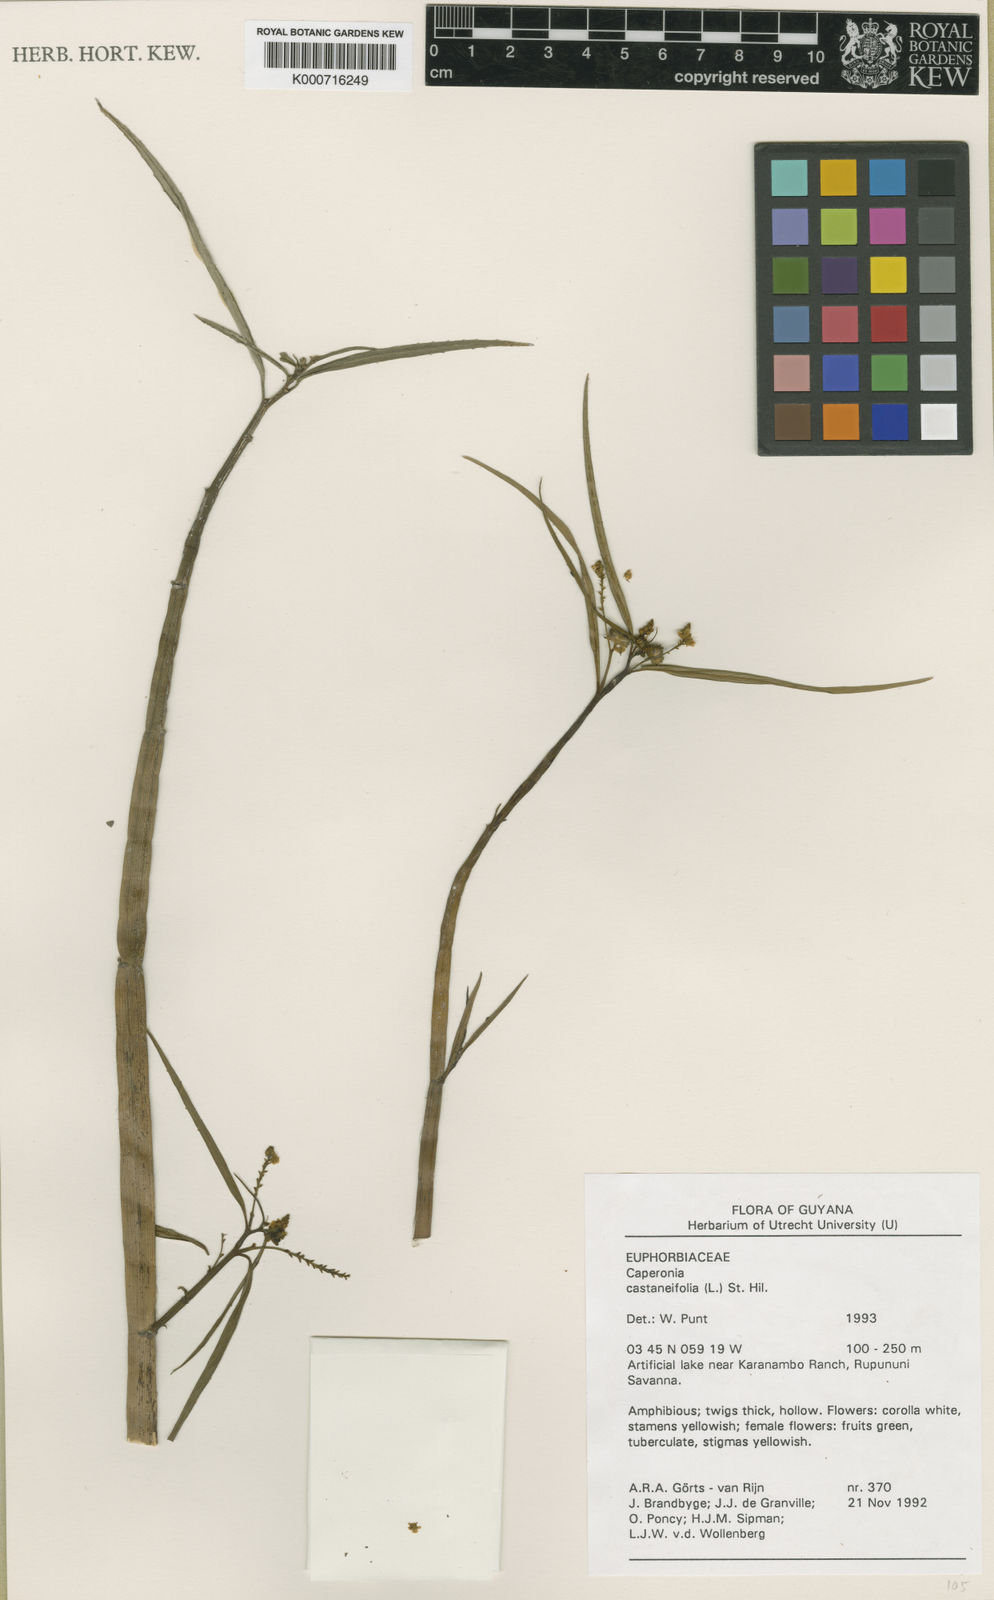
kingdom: Plantae
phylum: Tracheophyta
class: Magnoliopsida
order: Malpighiales
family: Euphorbiaceae
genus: Caperonia
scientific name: Caperonia
